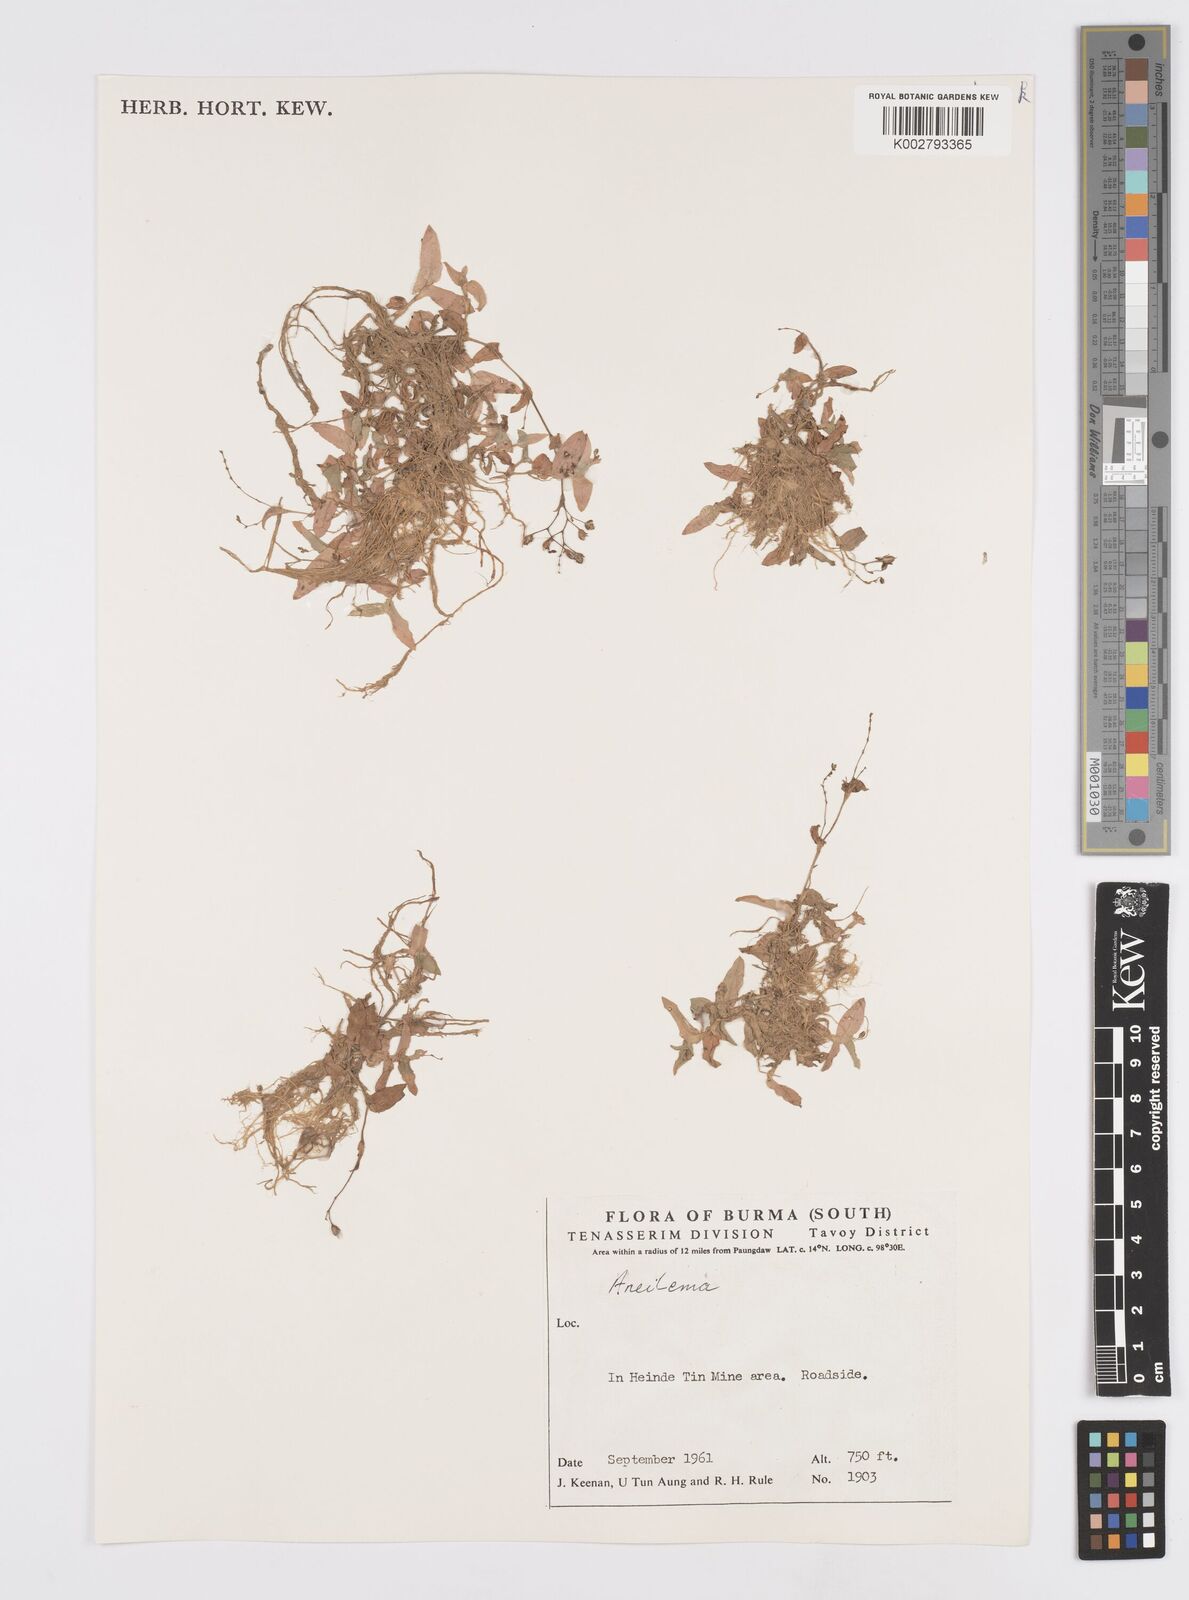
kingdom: Plantae
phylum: Tracheophyta
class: Liliopsida
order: Commelinales
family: Commelinaceae
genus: Murdannia
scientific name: Murdannia
